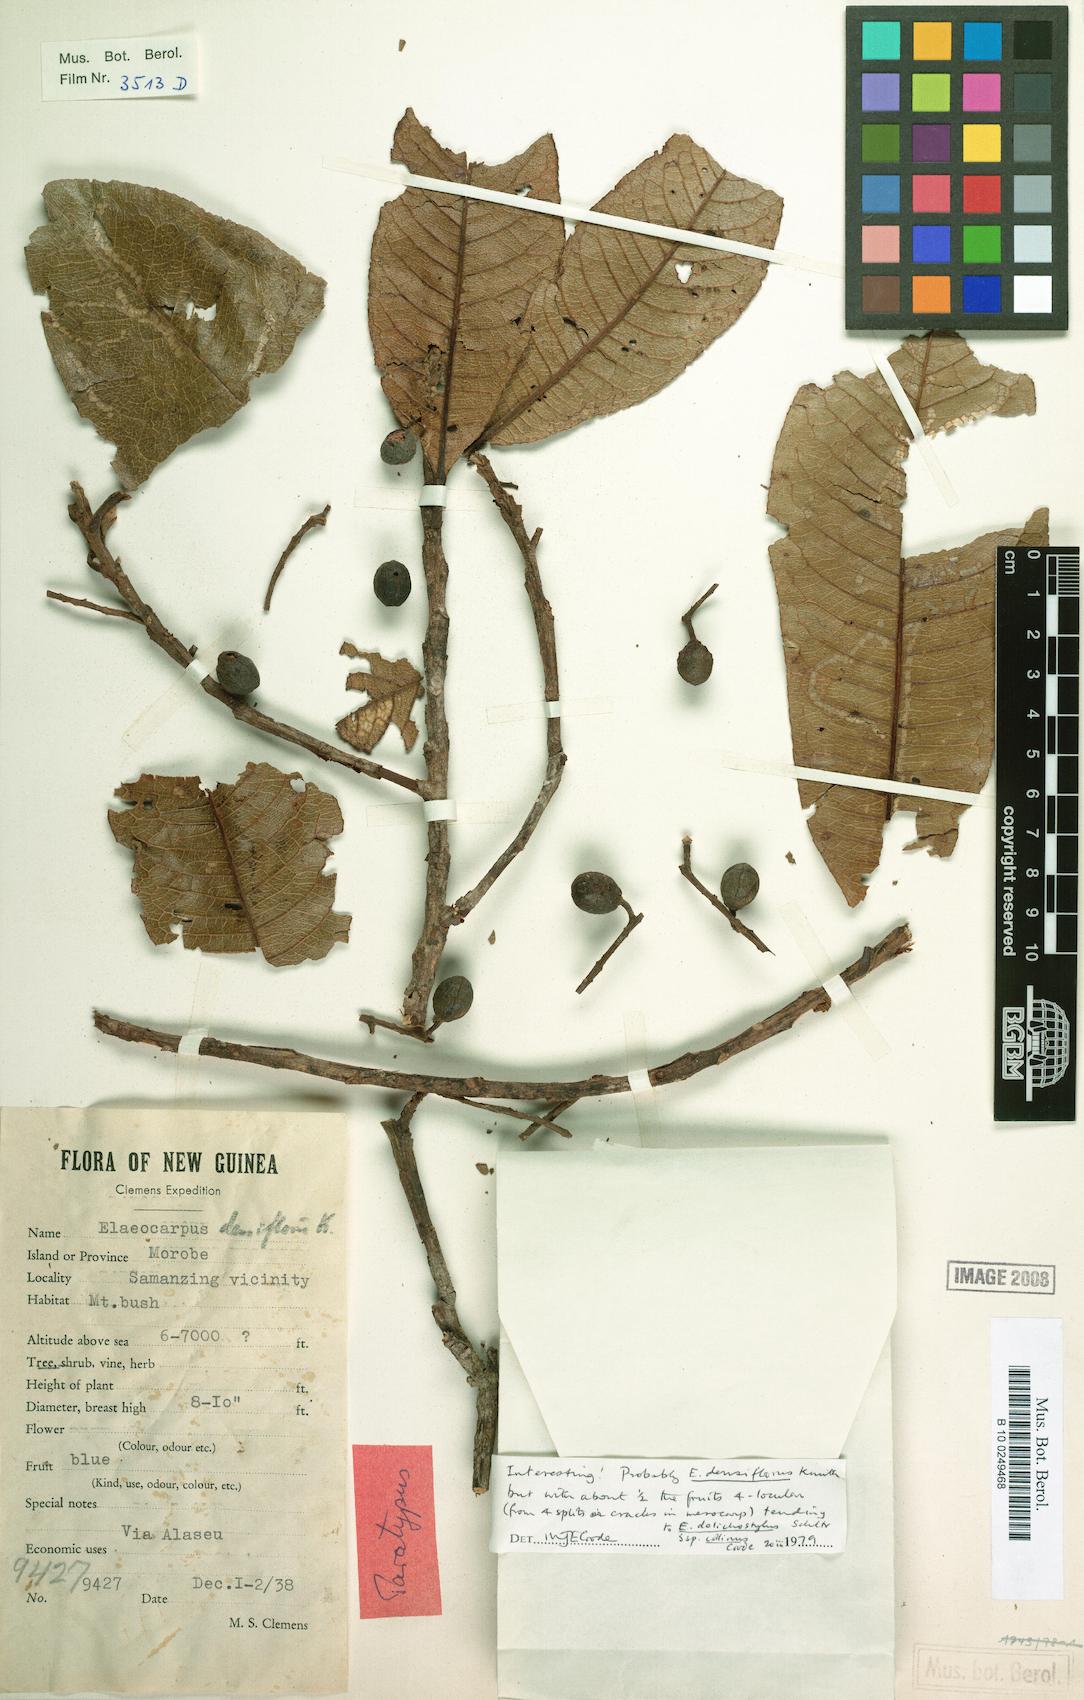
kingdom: Plantae
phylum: Tracheophyta
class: Magnoliopsida
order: Oxalidales
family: Elaeocarpaceae
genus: Elaeocarpus
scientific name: Elaeocarpus densiflorus
